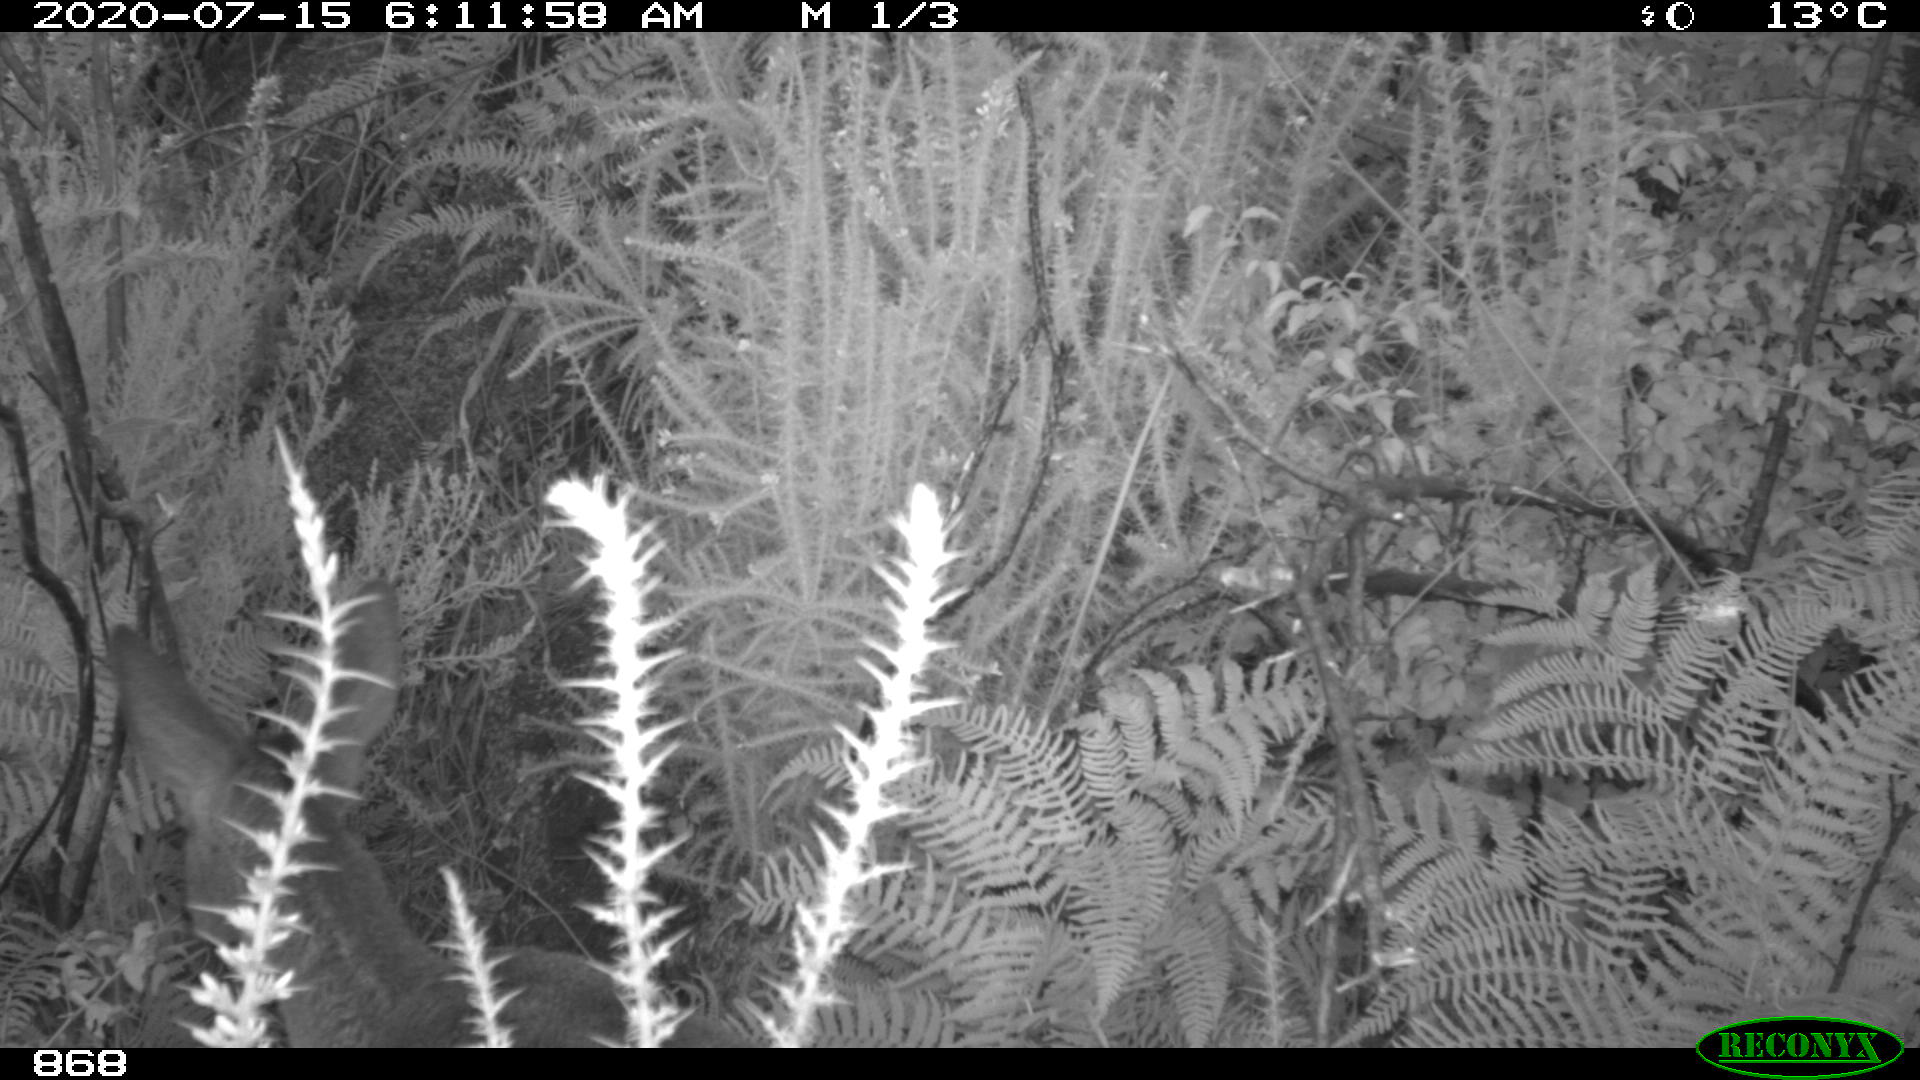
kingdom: Animalia
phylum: Chordata
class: Mammalia
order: Artiodactyla
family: Cervidae
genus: Capreolus
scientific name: Capreolus capreolus
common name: Western roe deer
